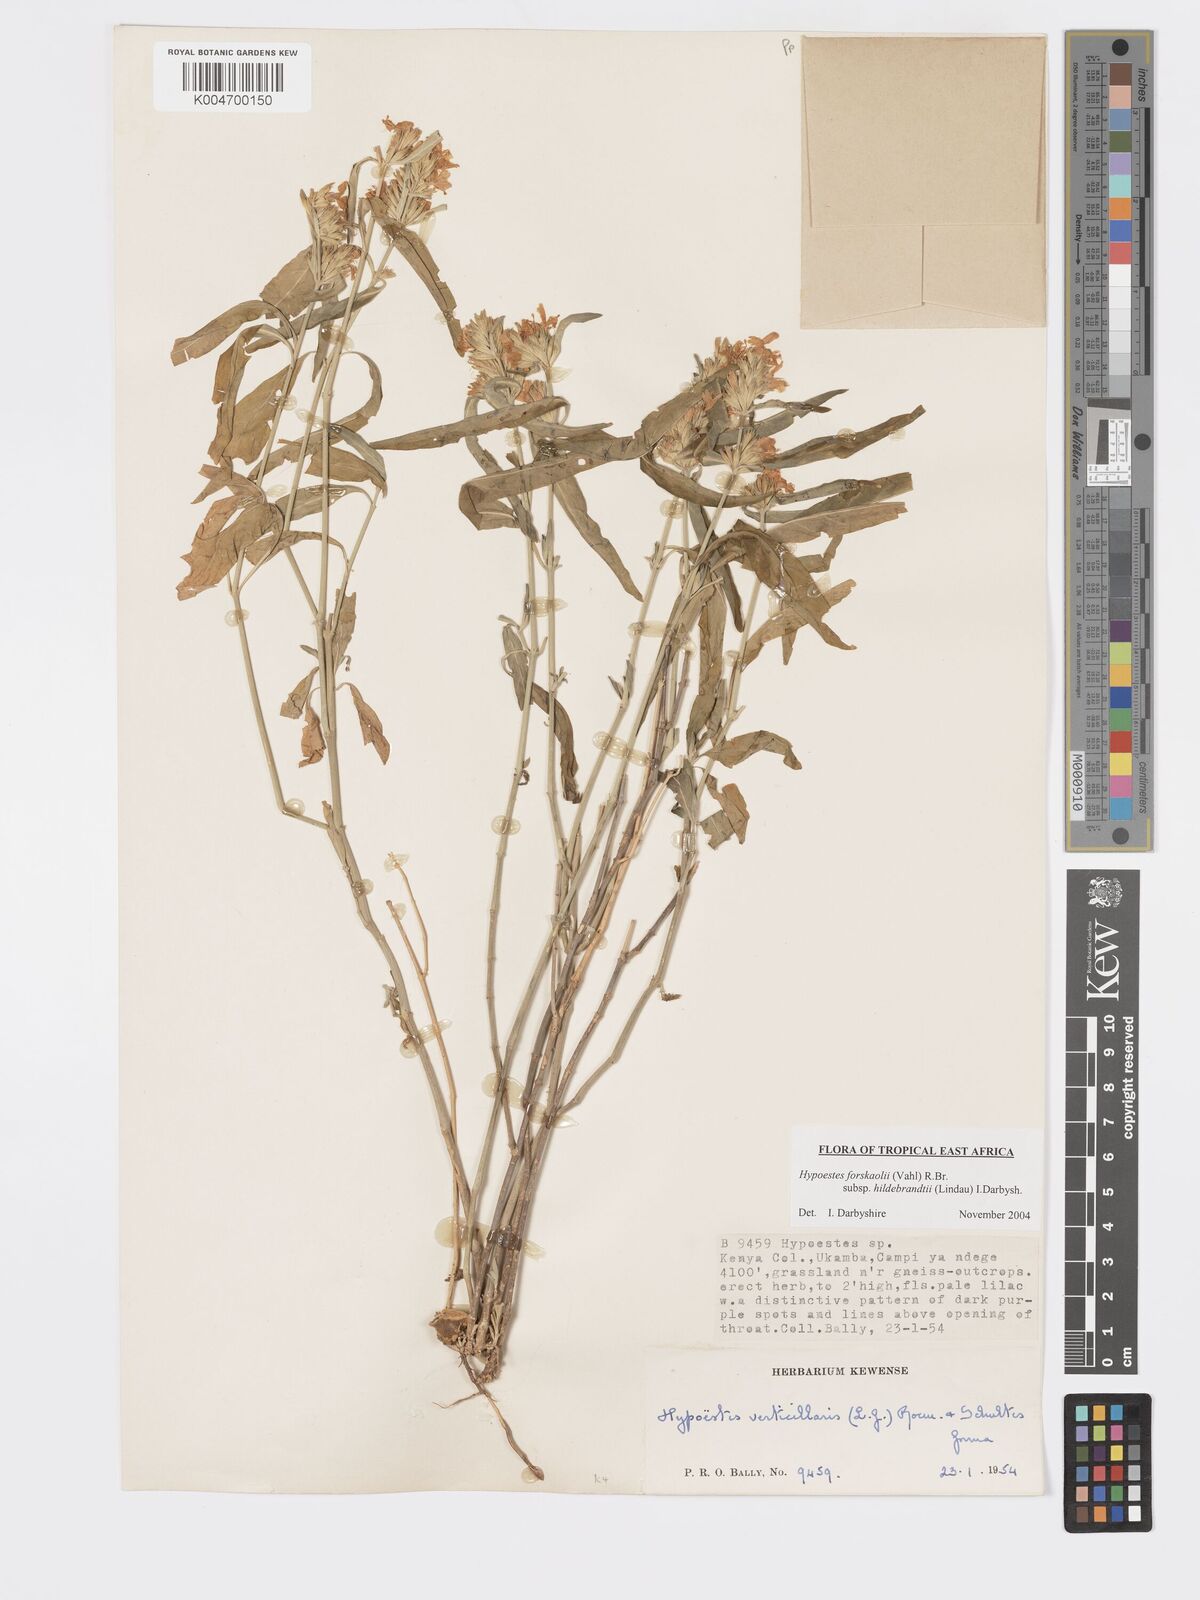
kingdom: Plantae
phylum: Tracheophyta
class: Magnoliopsida
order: Lamiales
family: Acanthaceae
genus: Hypoestes
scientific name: Hypoestes forskaolii
